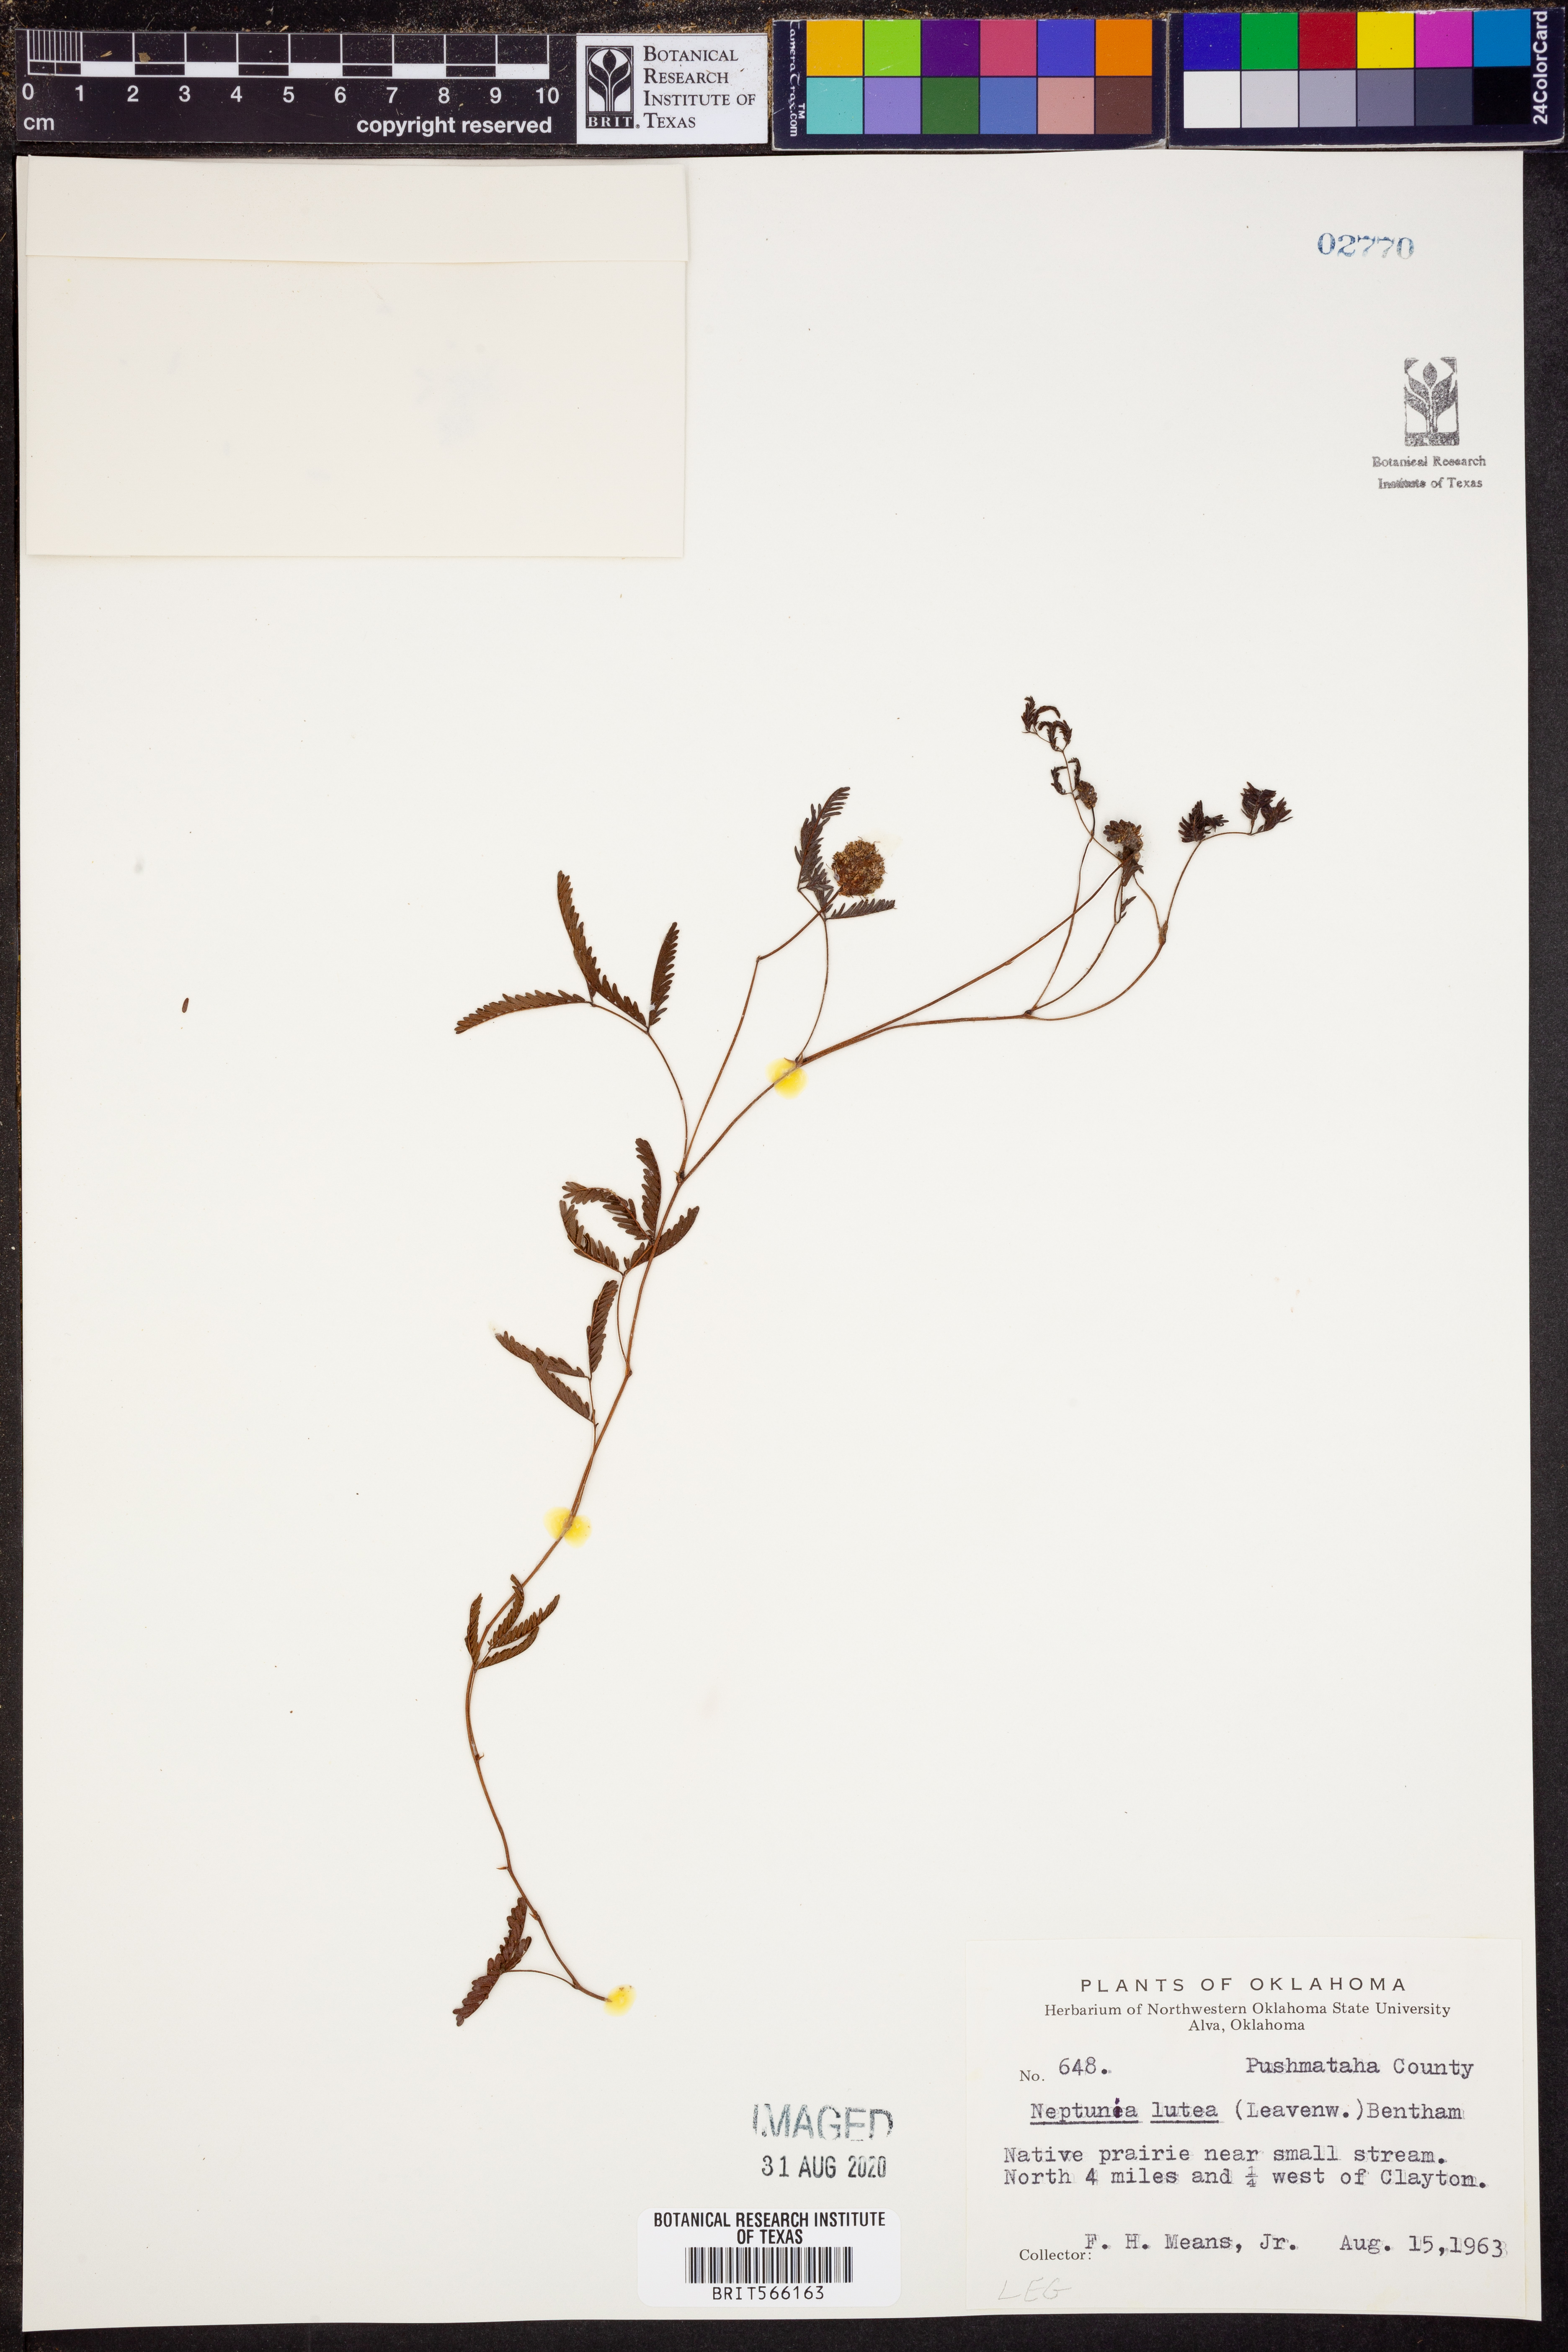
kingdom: Plantae
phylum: Tracheophyta
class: Magnoliopsida
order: Fabales
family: Fabaceae
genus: Neptunia
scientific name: Neptunia lutea
